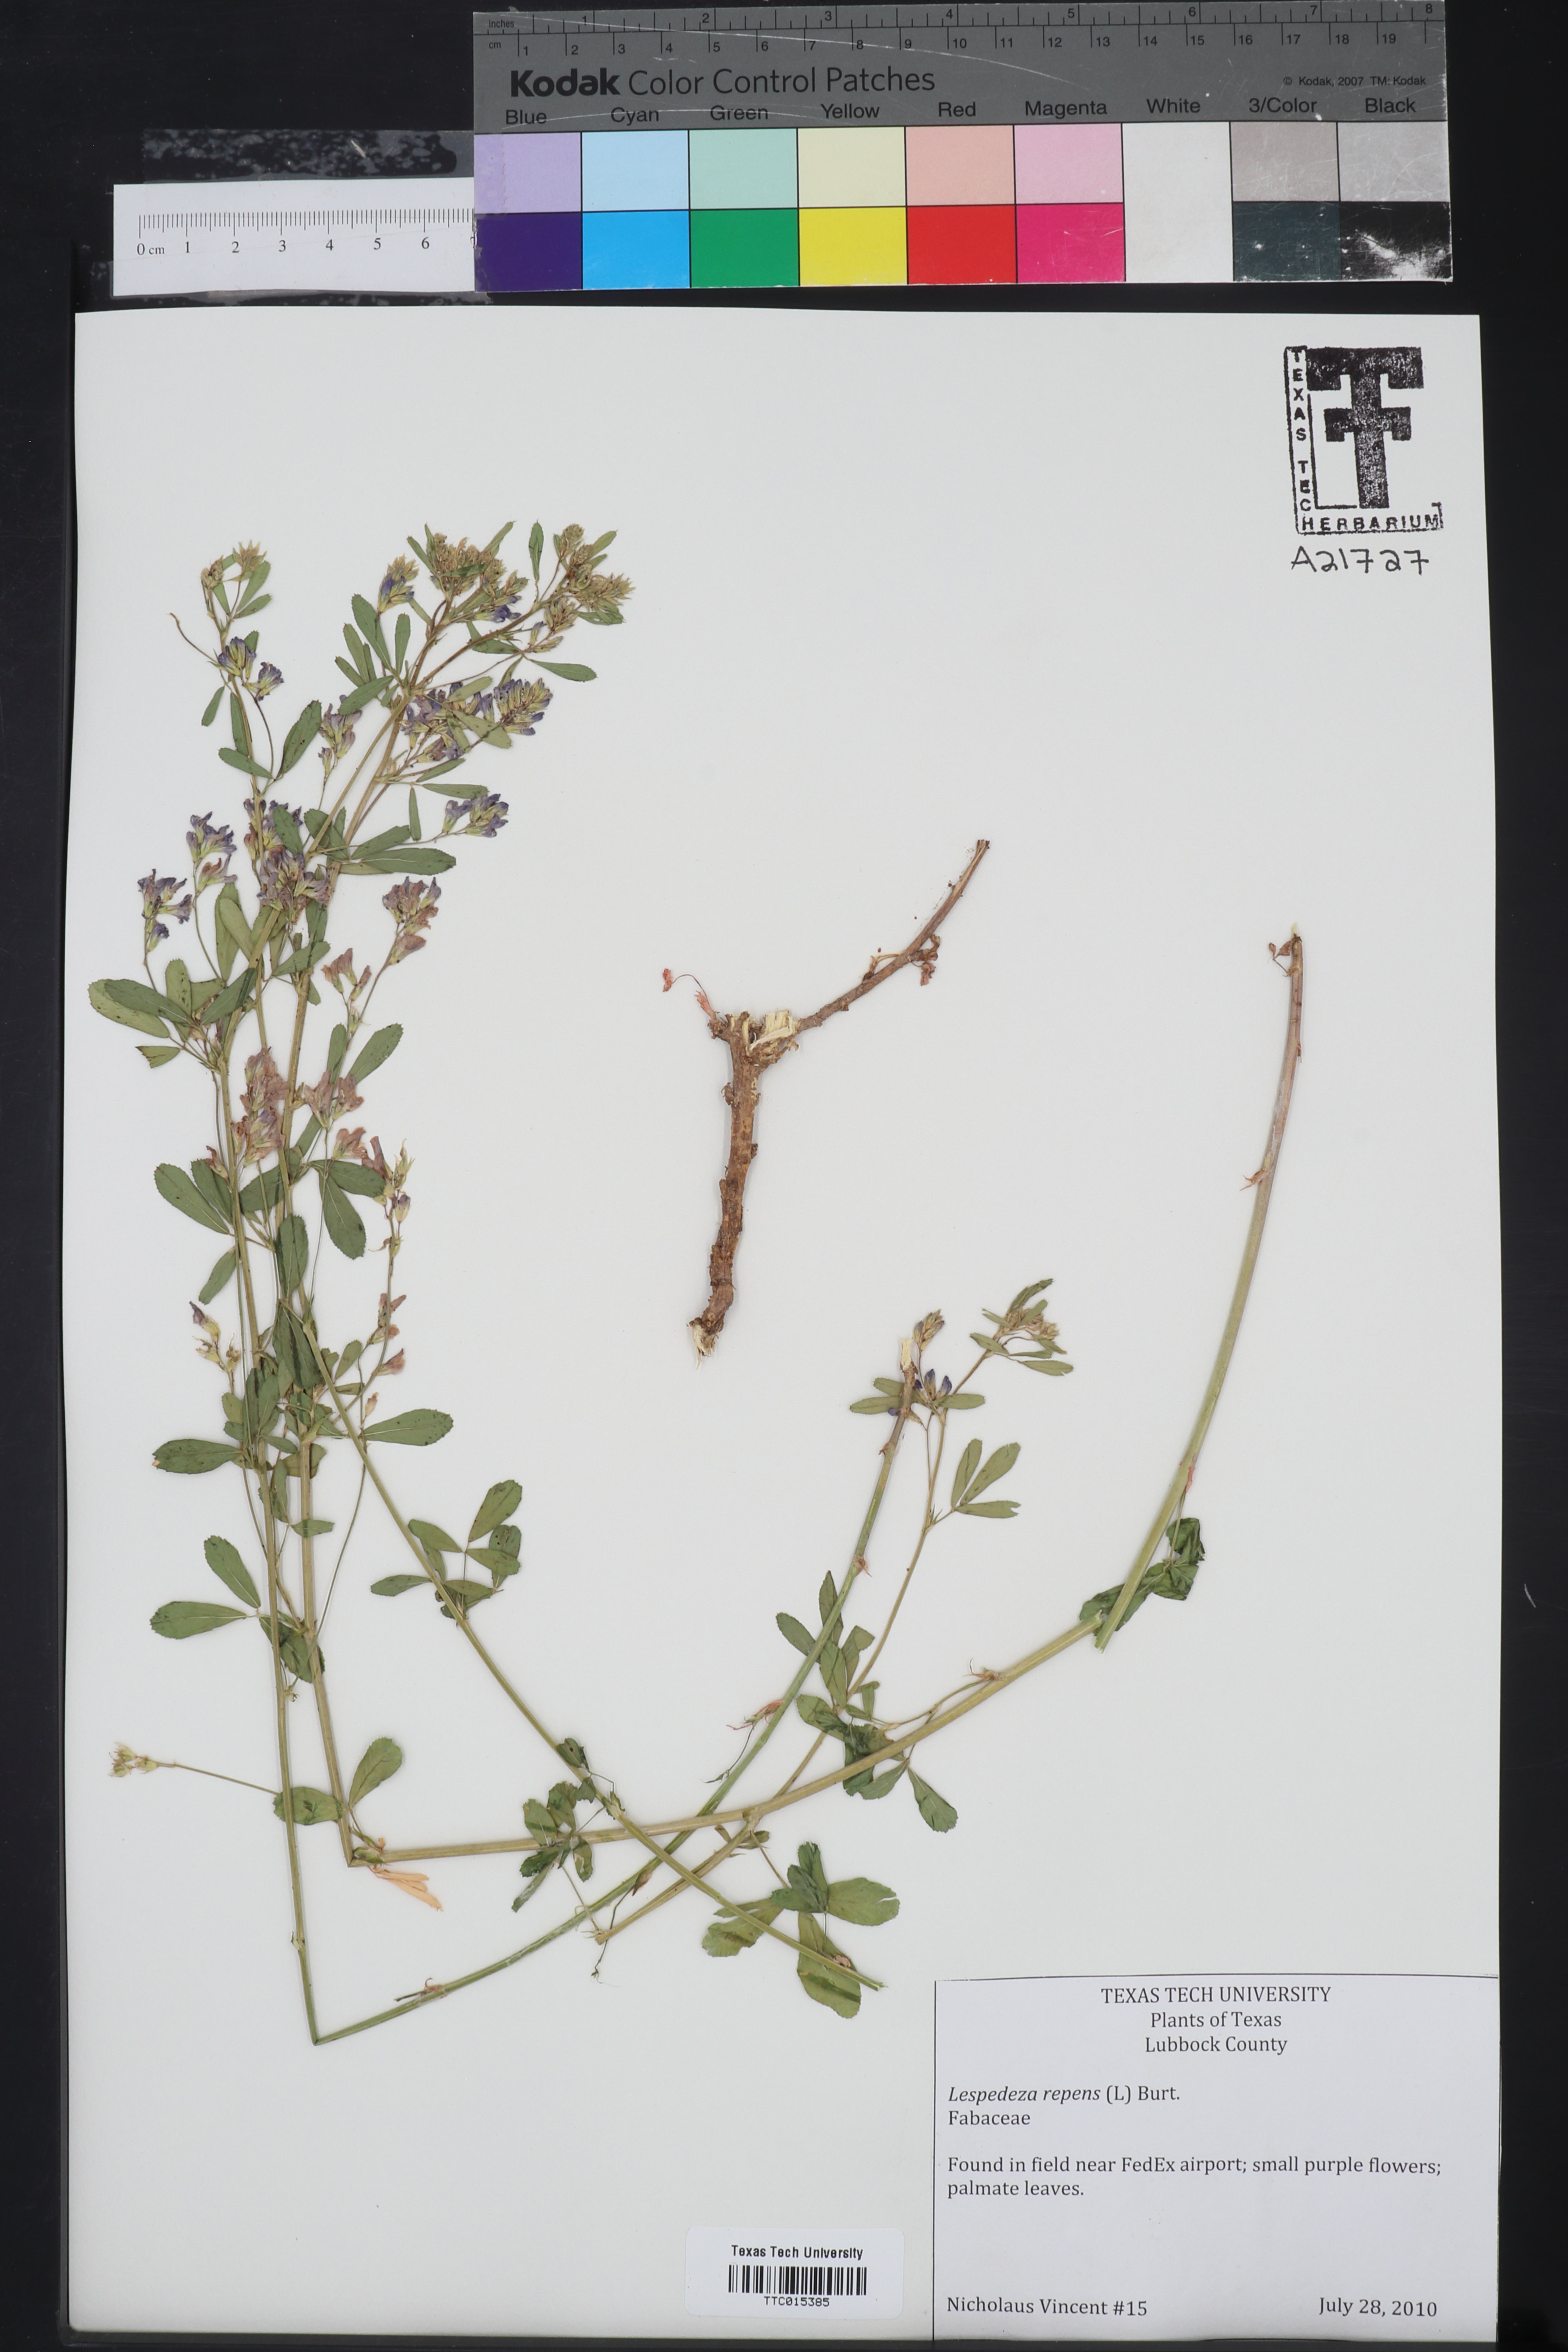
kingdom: Plantae
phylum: Tracheophyta
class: Magnoliopsida
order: Fabales
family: Fabaceae
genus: Lespedeza
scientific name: Lespedeza repens
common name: Creeping bush-clover
